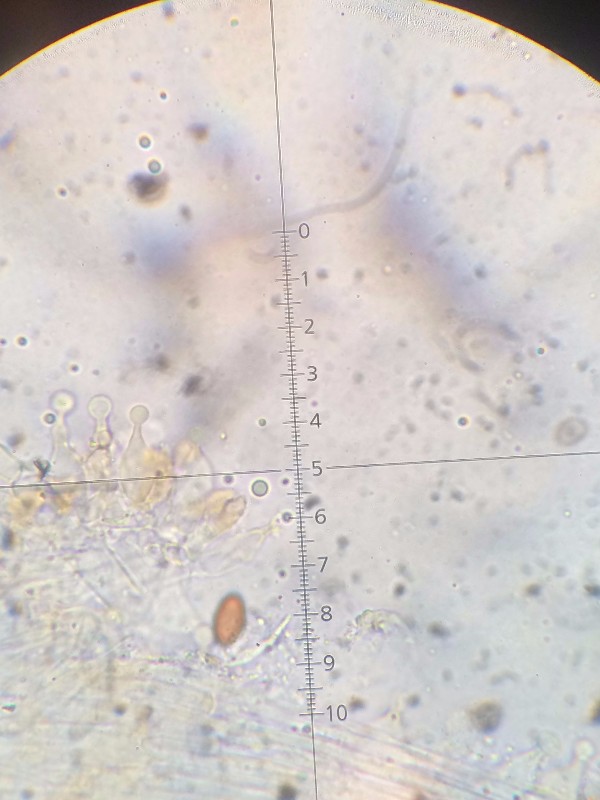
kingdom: Fungi
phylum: Basidiomycota
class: Agaricomycetes
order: Agaricales
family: Bolbitiaceae
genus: Conocybe
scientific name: Conocybe semiglobata
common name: halvkugleformet keglehat
